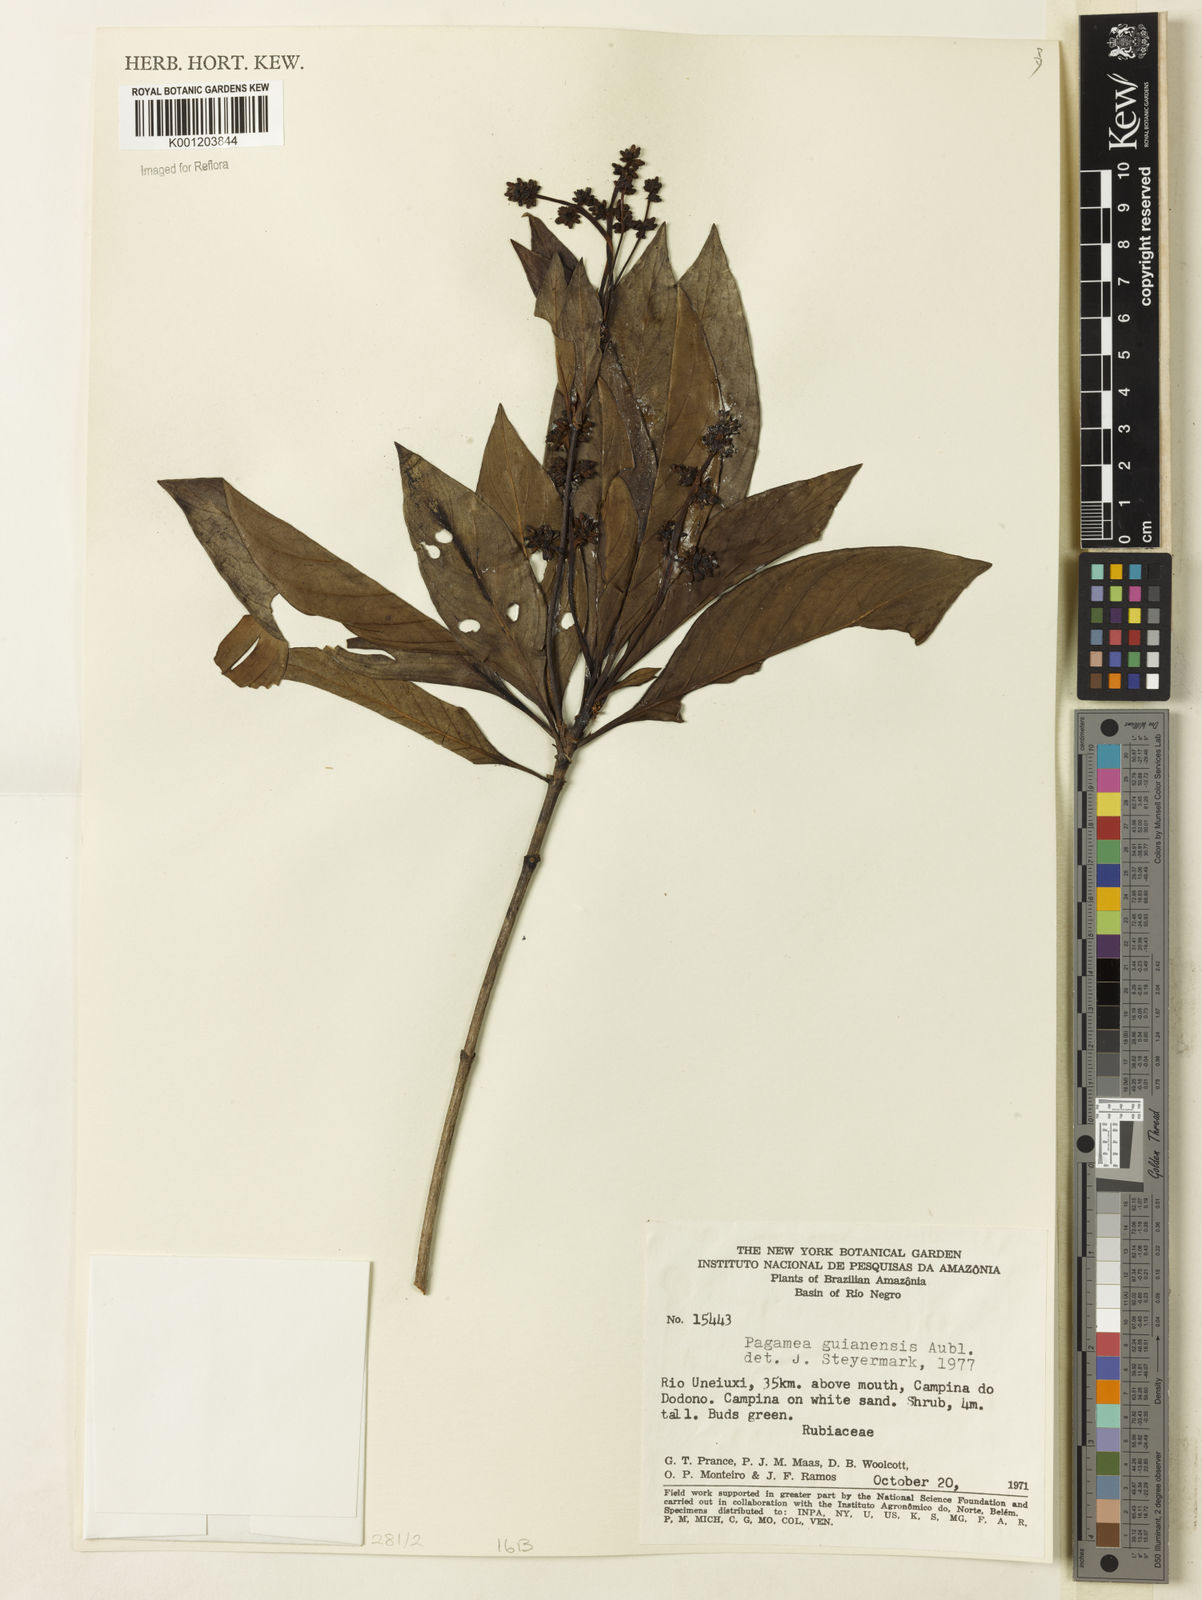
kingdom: Plantae
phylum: Tracheophyta
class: Magnoliopsida
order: Gentianales
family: Rubiaceae
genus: Pagamea
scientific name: Pagamea guianensis
